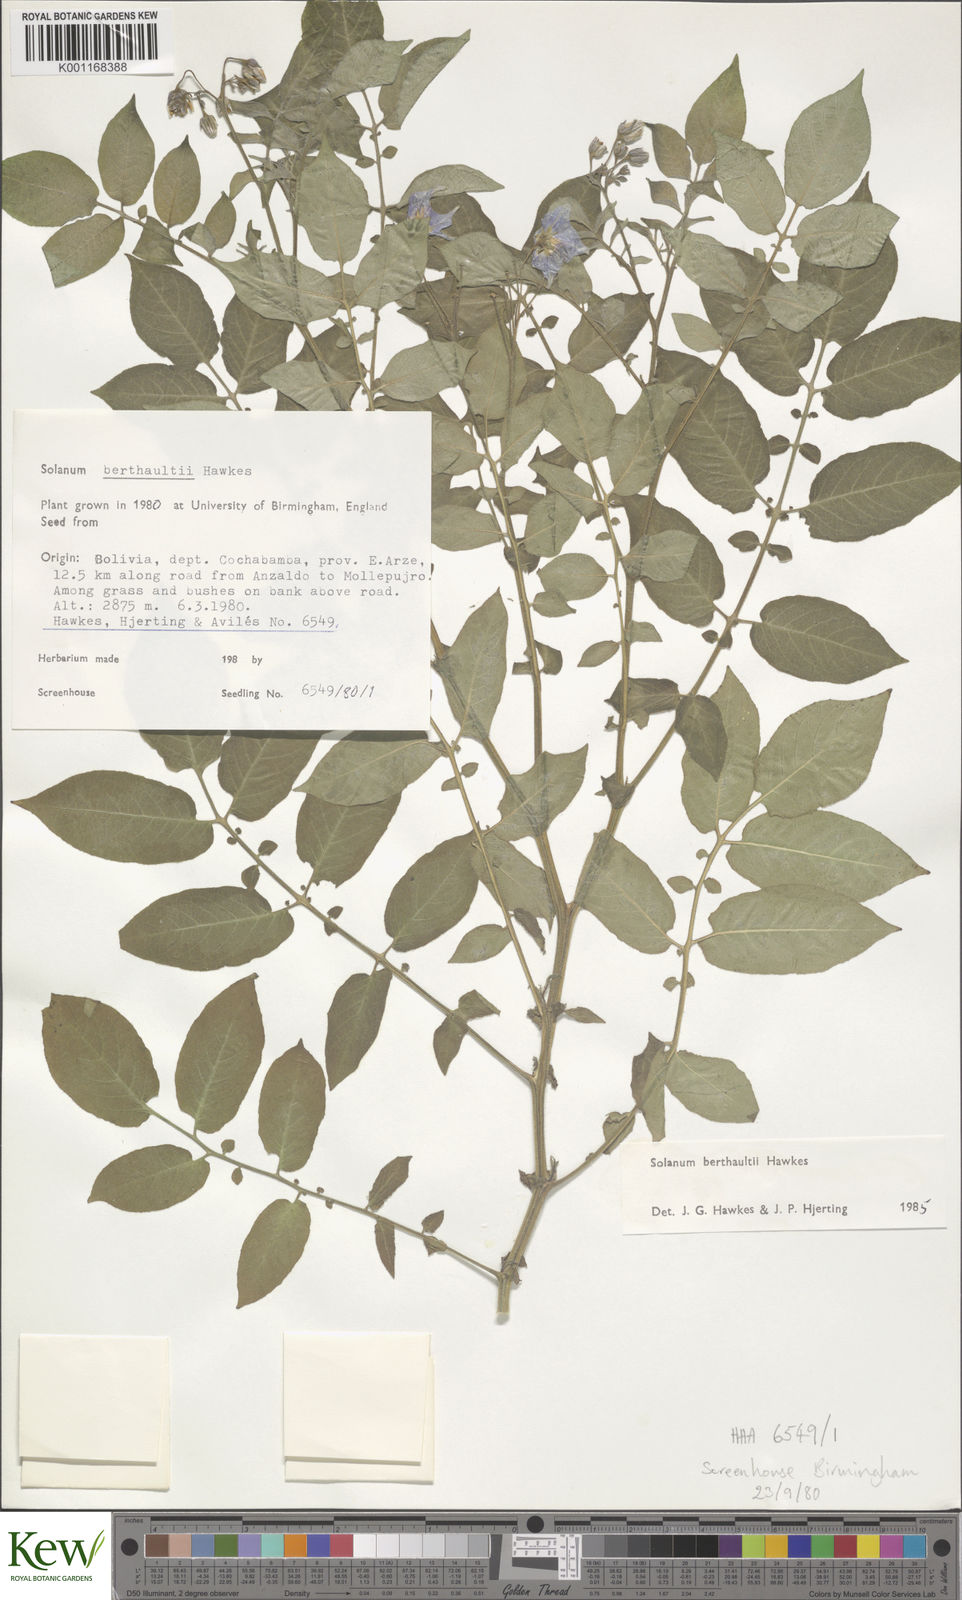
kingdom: Plantae
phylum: Tracheophyta
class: Magnoliopsida
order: Solanales
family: Solanaceae
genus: Solanum
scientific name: Solanum berthaultii
